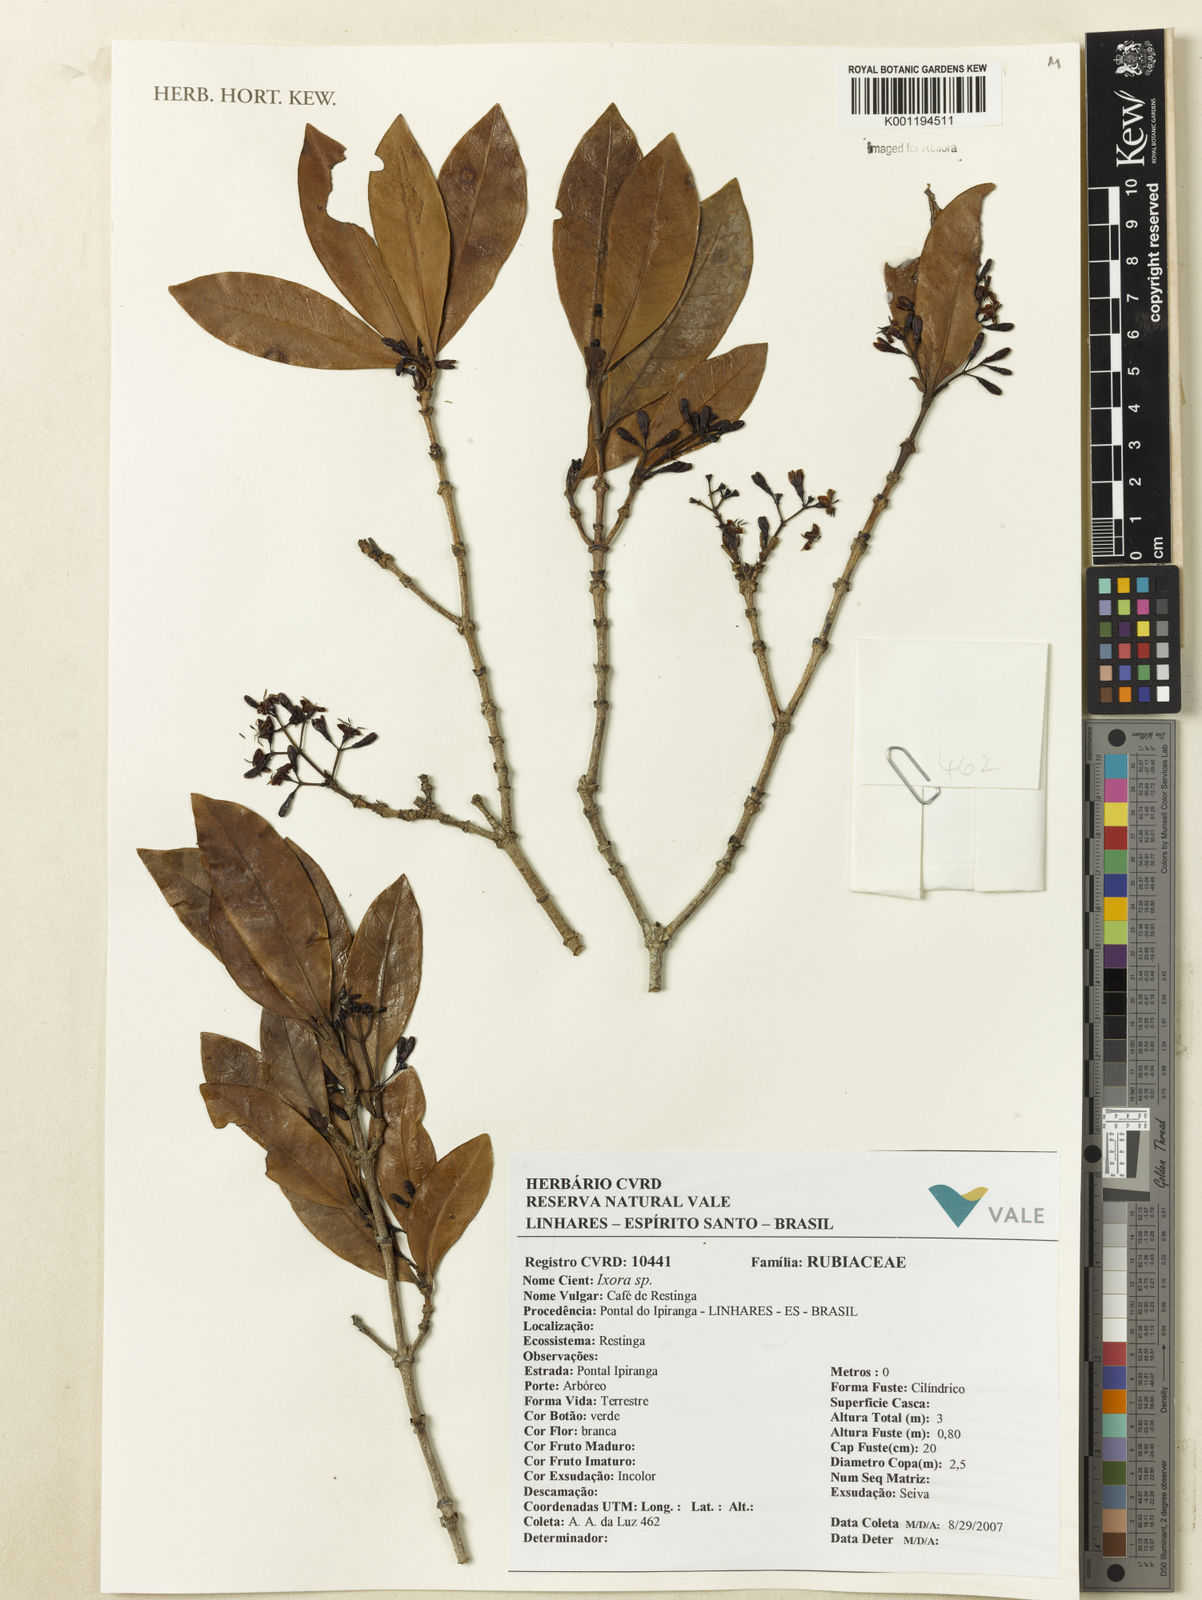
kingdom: Plantae
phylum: Tracheophyta
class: Magnoliopsida
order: Gentianales
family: Rubiaceae
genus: Ixora
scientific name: Ixora
